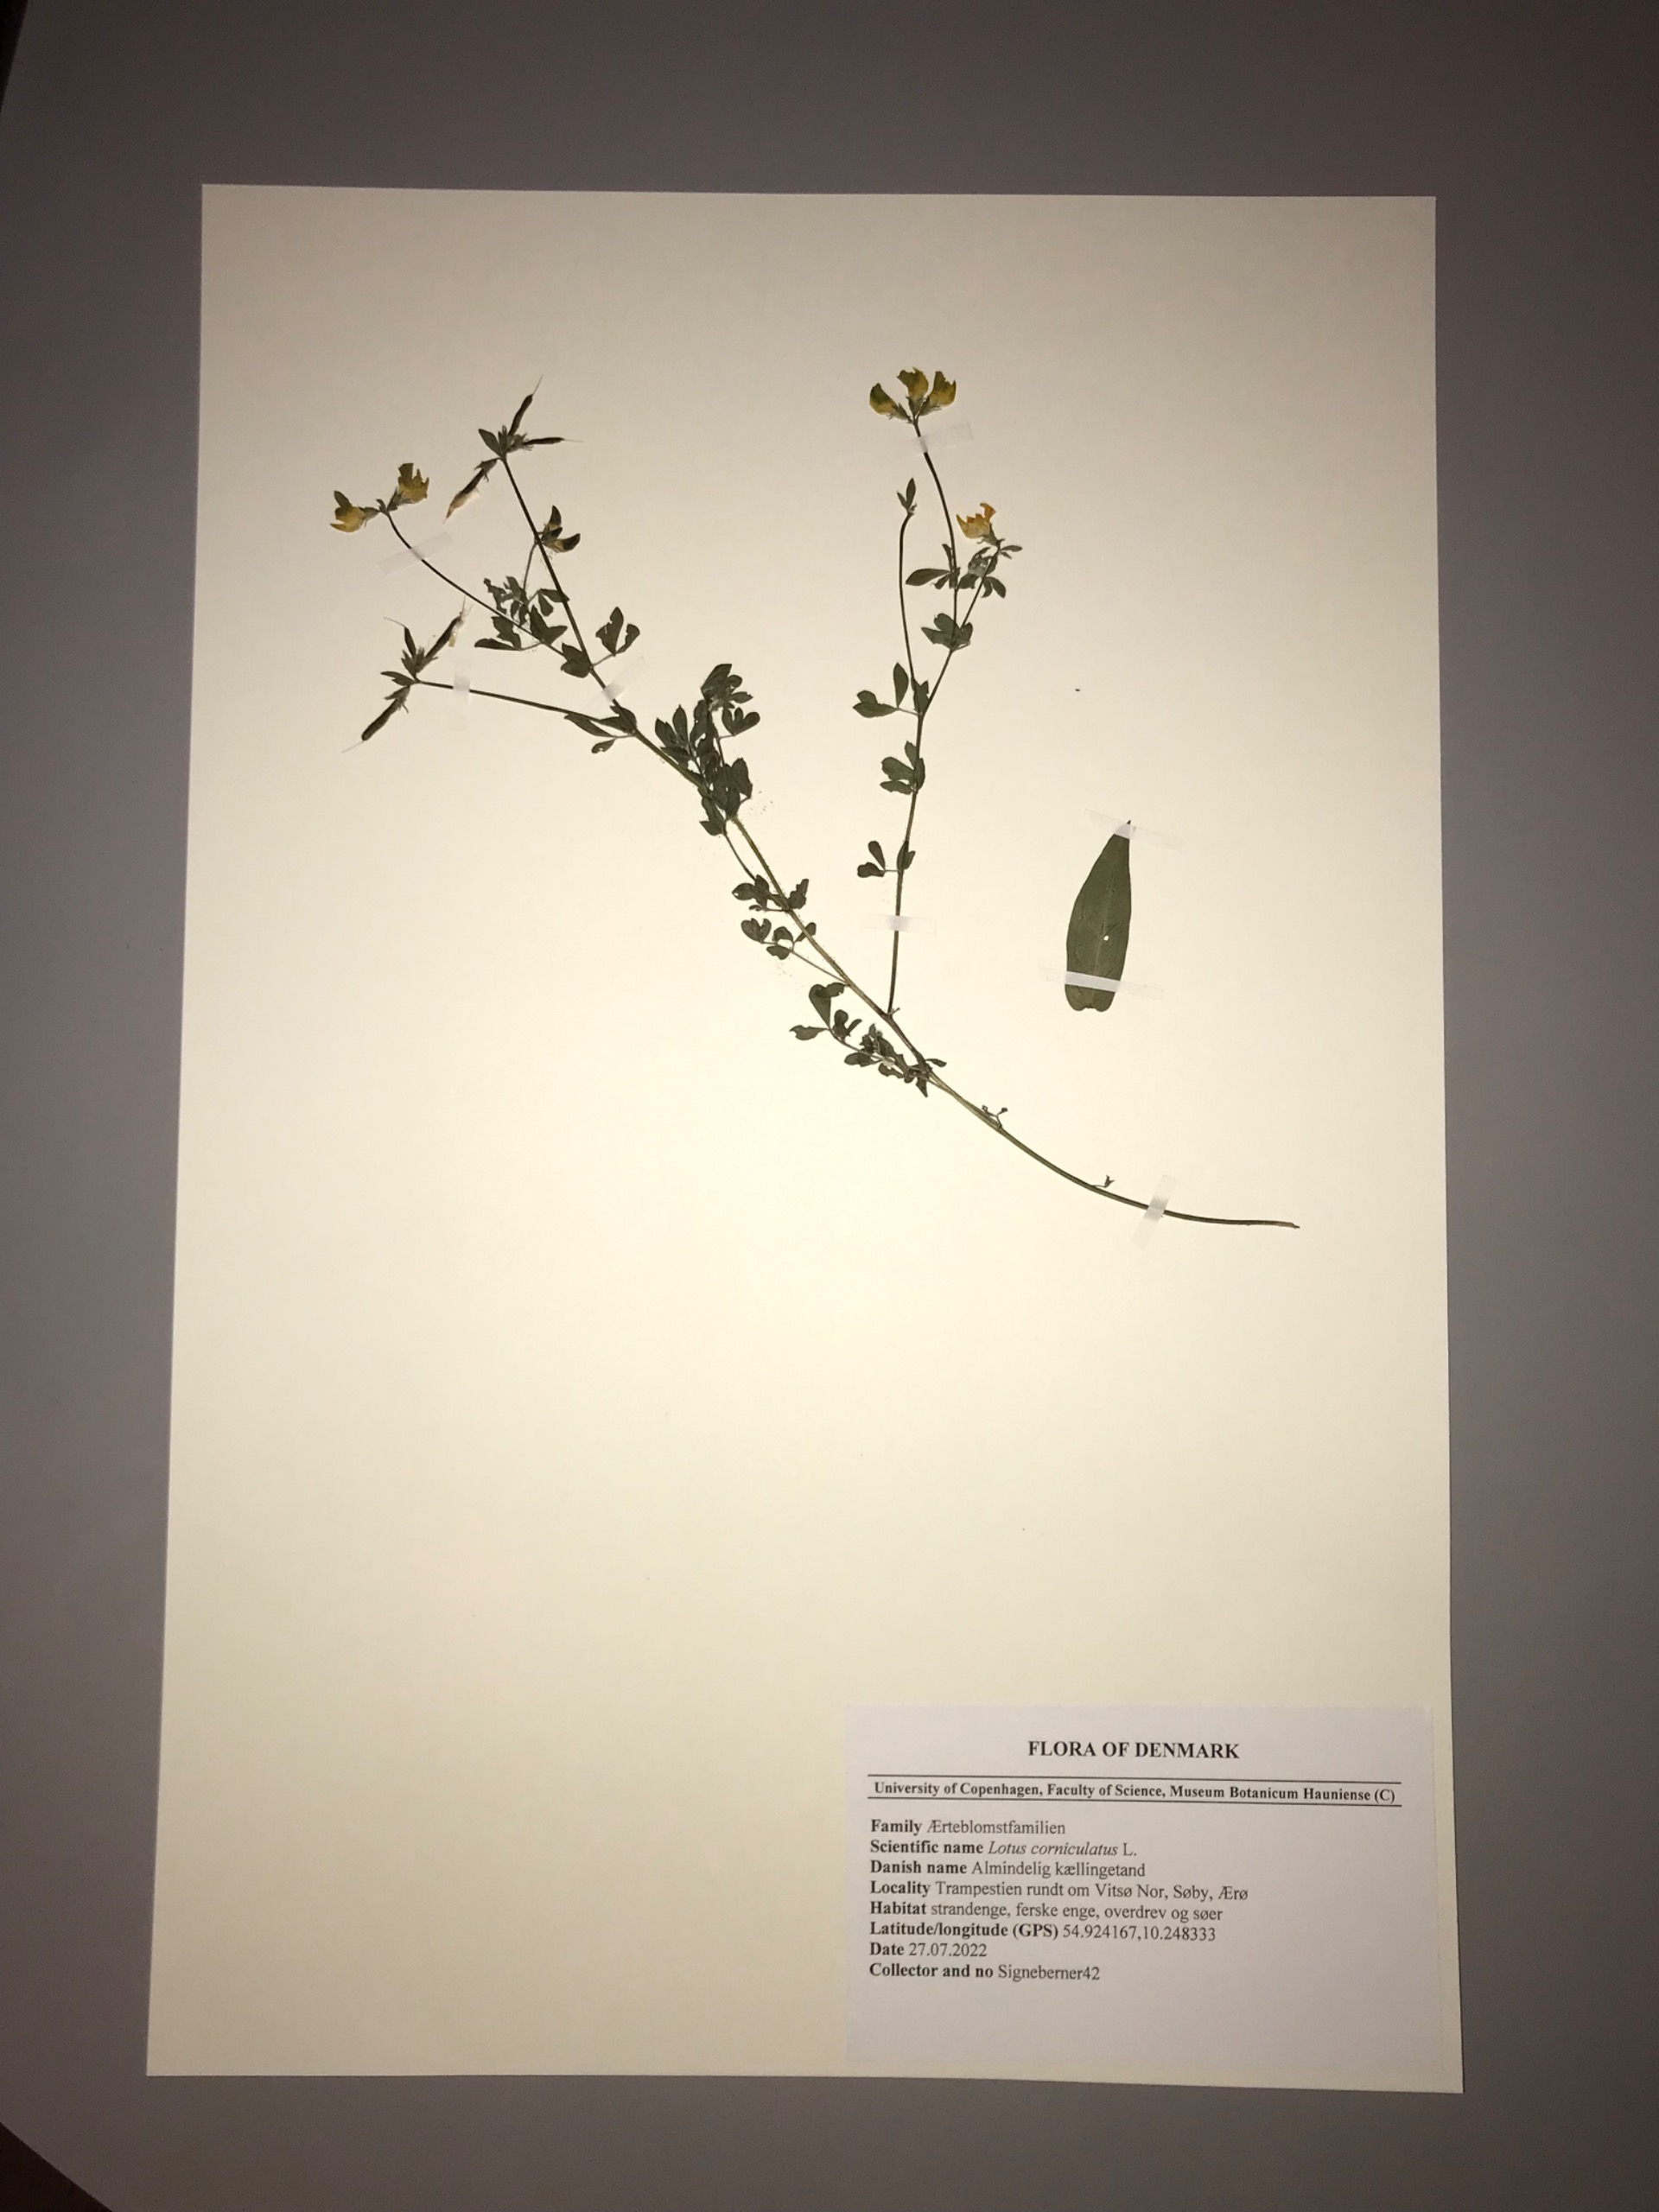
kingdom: Plantae
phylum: Tracheophyta
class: Magnoliopsida
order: Fabales
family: Fabaceae
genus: Lotus
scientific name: Lotus corniculatus
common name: Almindelig kællingetand
